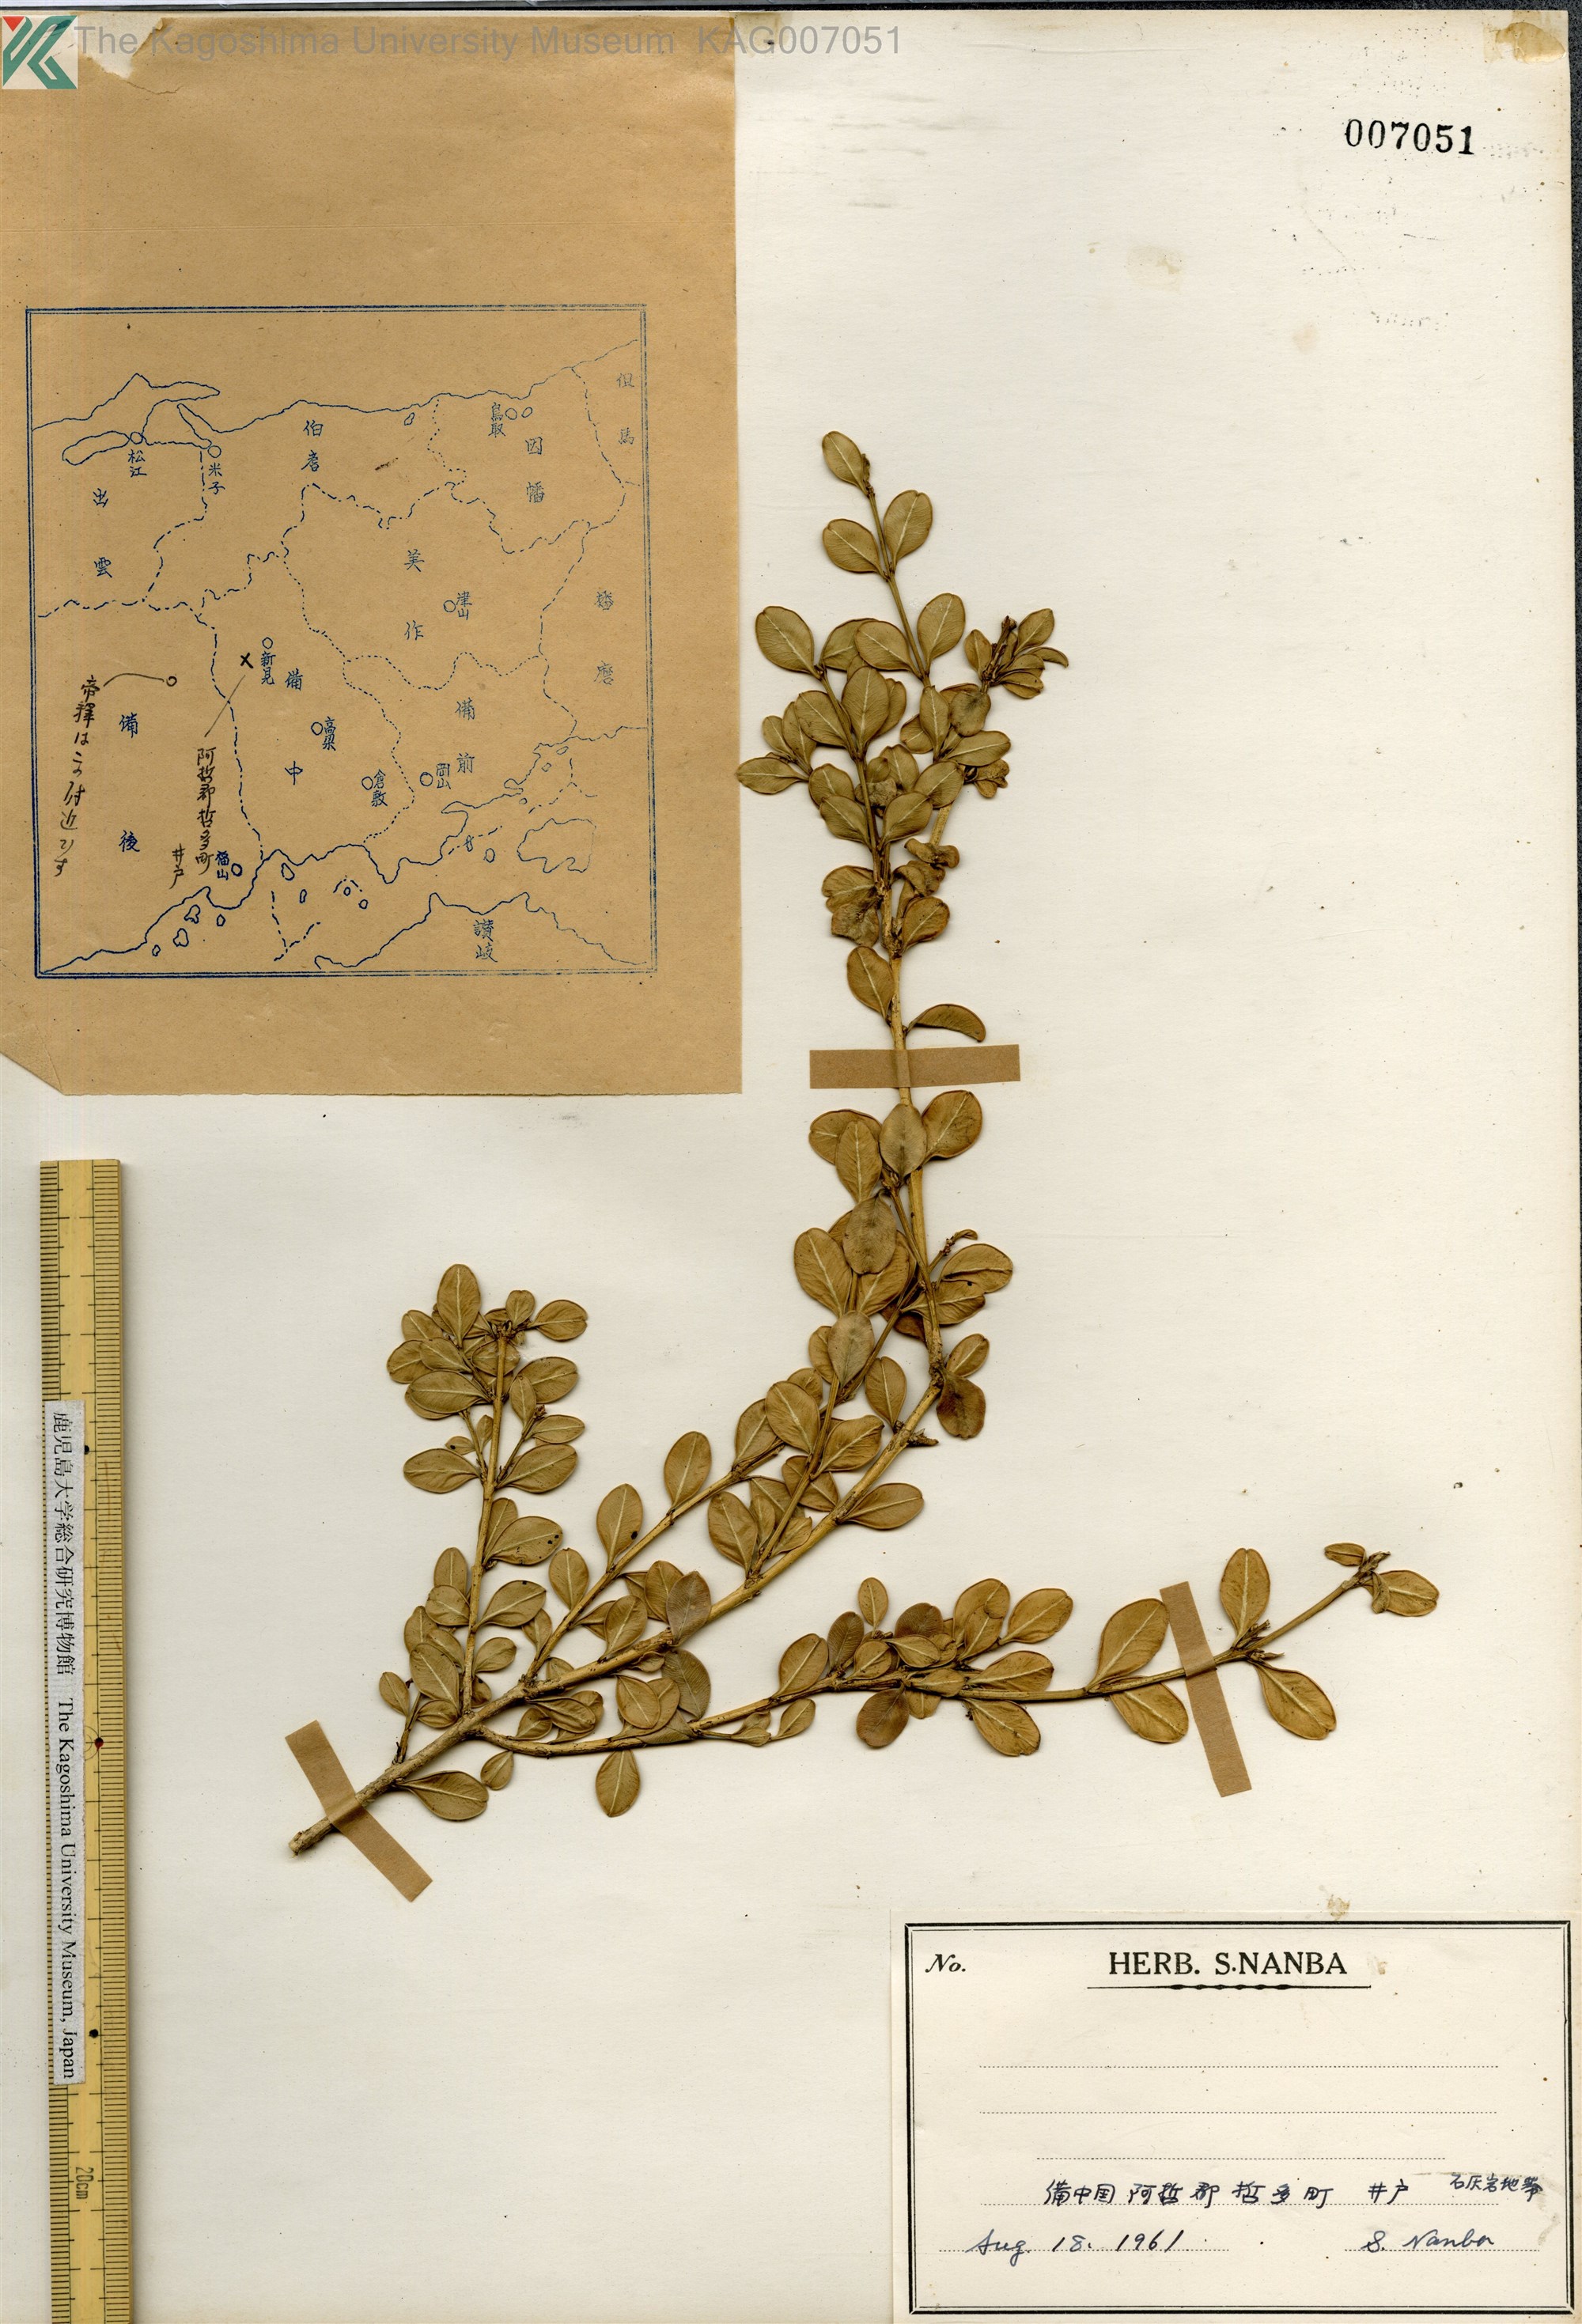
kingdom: Plantae
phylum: Tracheophyta
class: Magnoliopsida
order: Buxales
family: Buxaceae
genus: Buxus
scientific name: Buxus sinica
